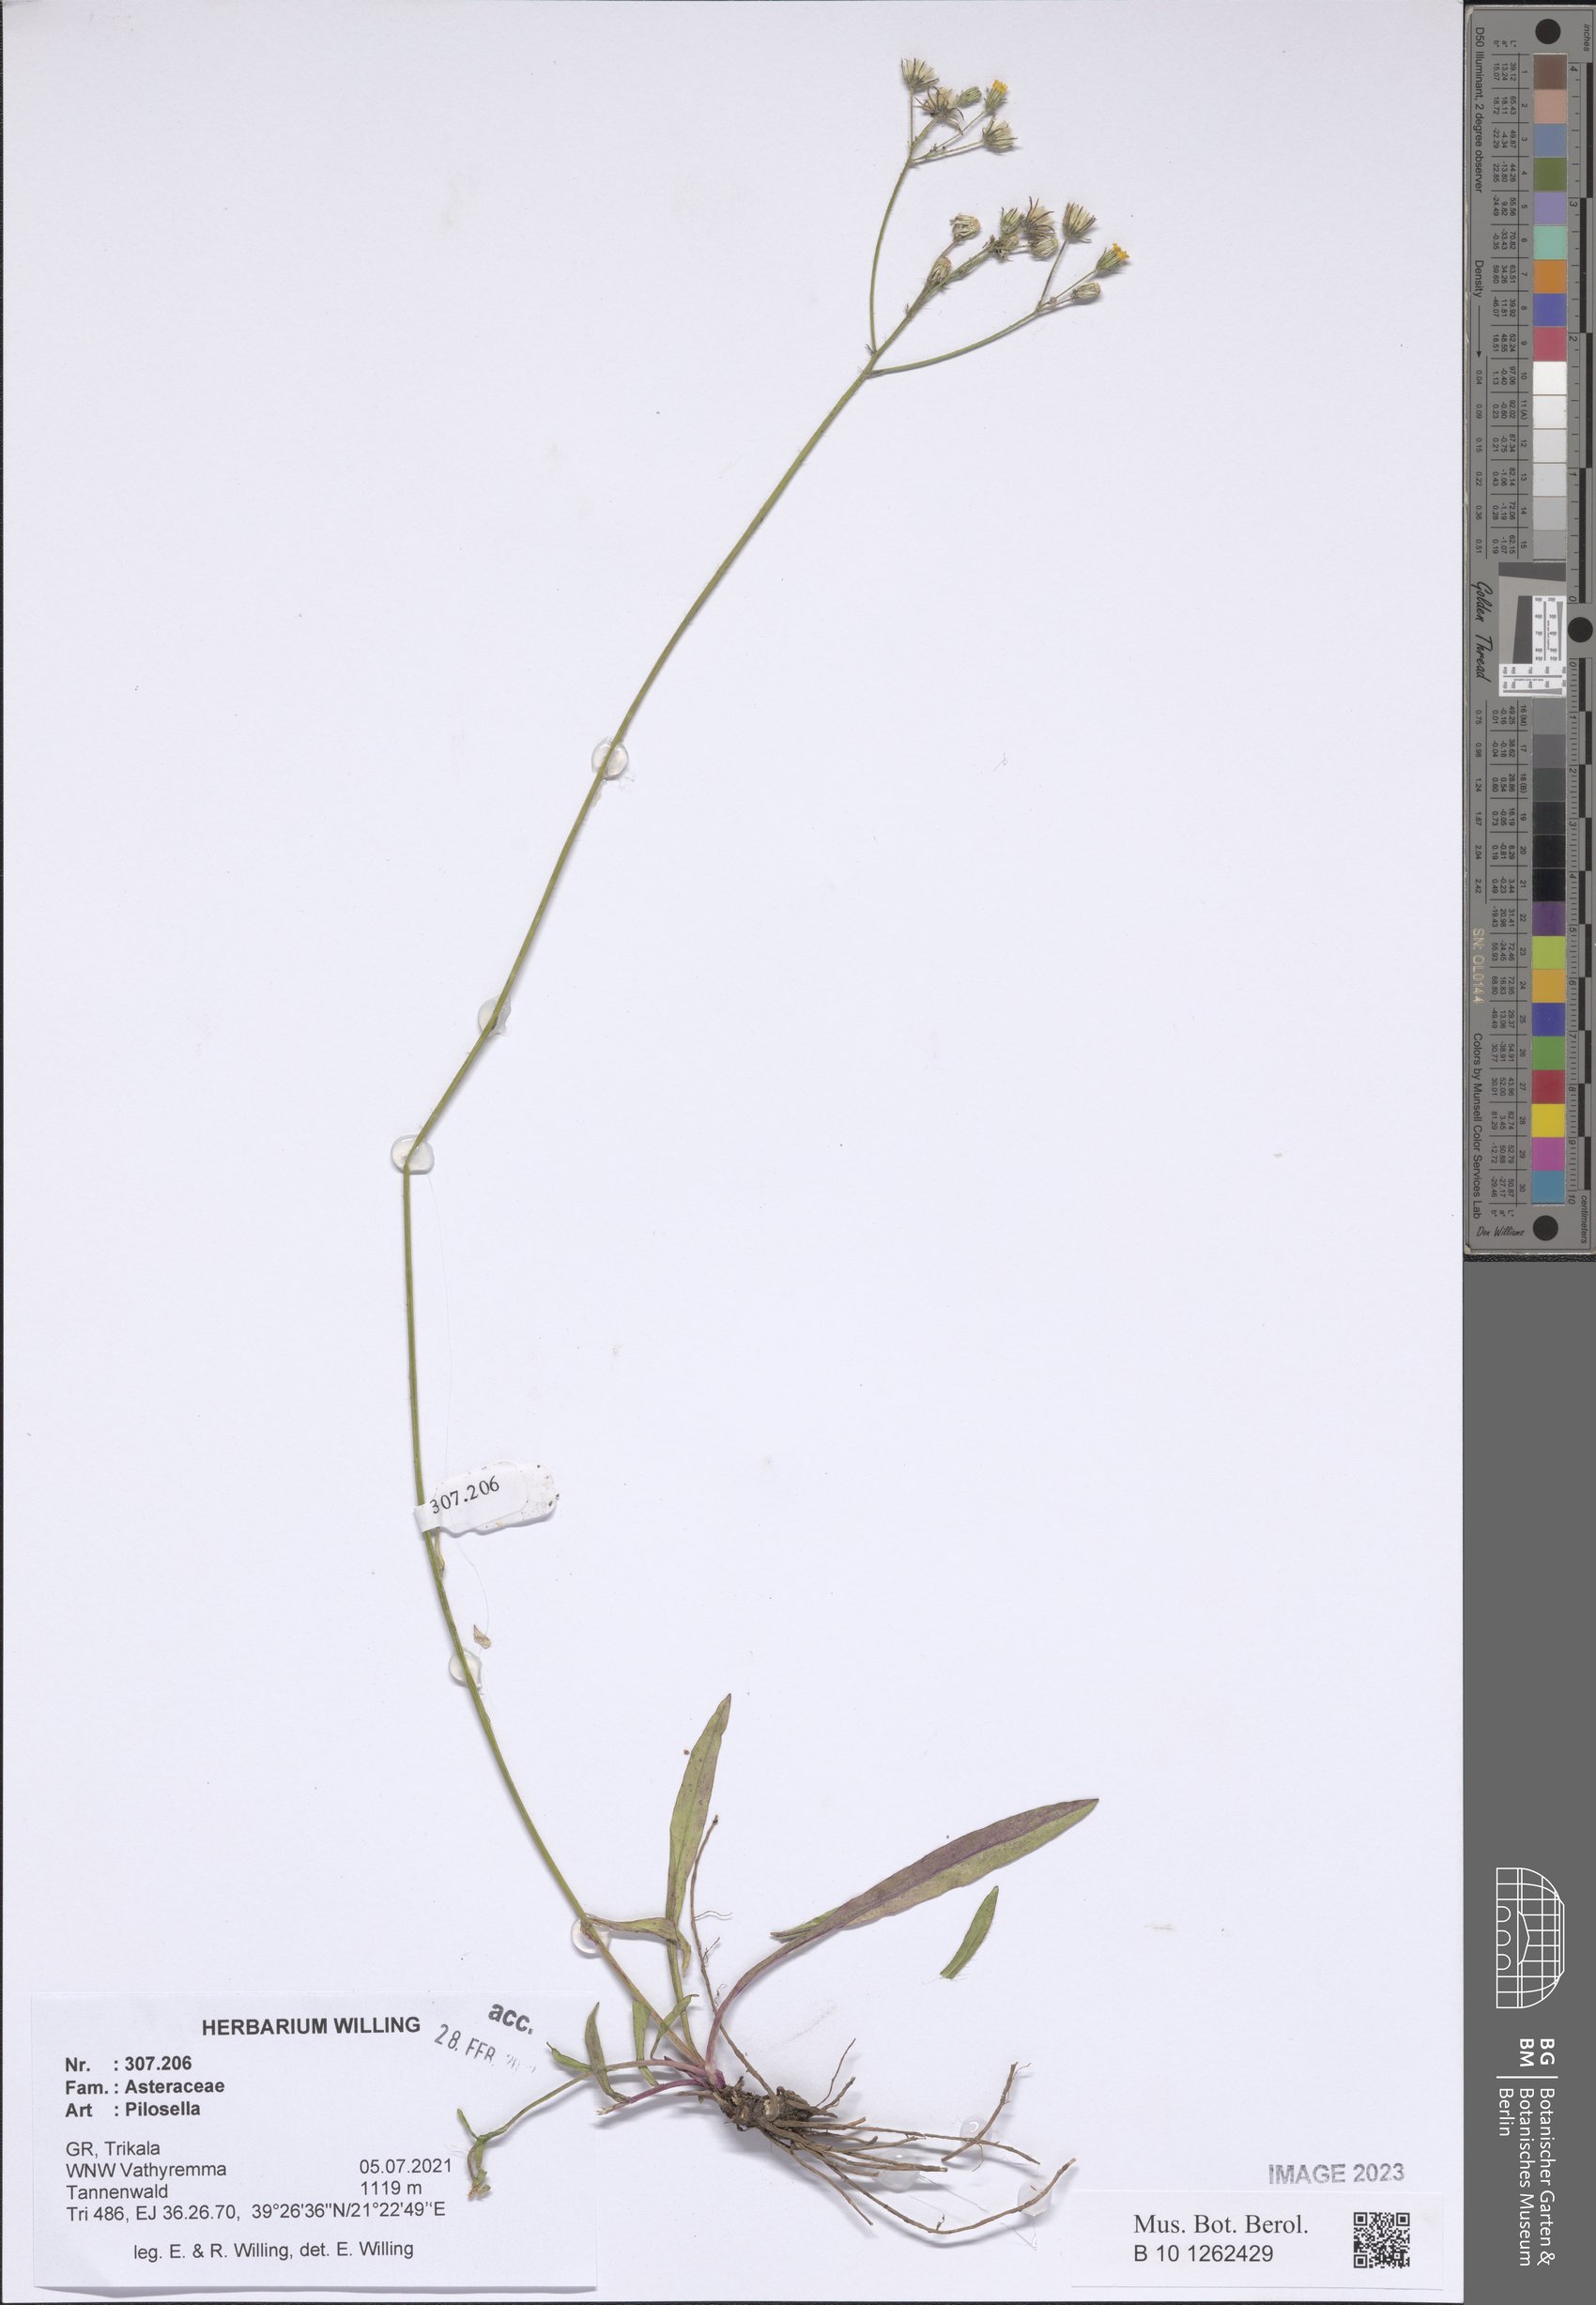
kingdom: Plantae
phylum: Tracheophyta
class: Magnoliopsida
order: Asterales
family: Asteraceae
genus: Pilosella
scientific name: Pilosella
